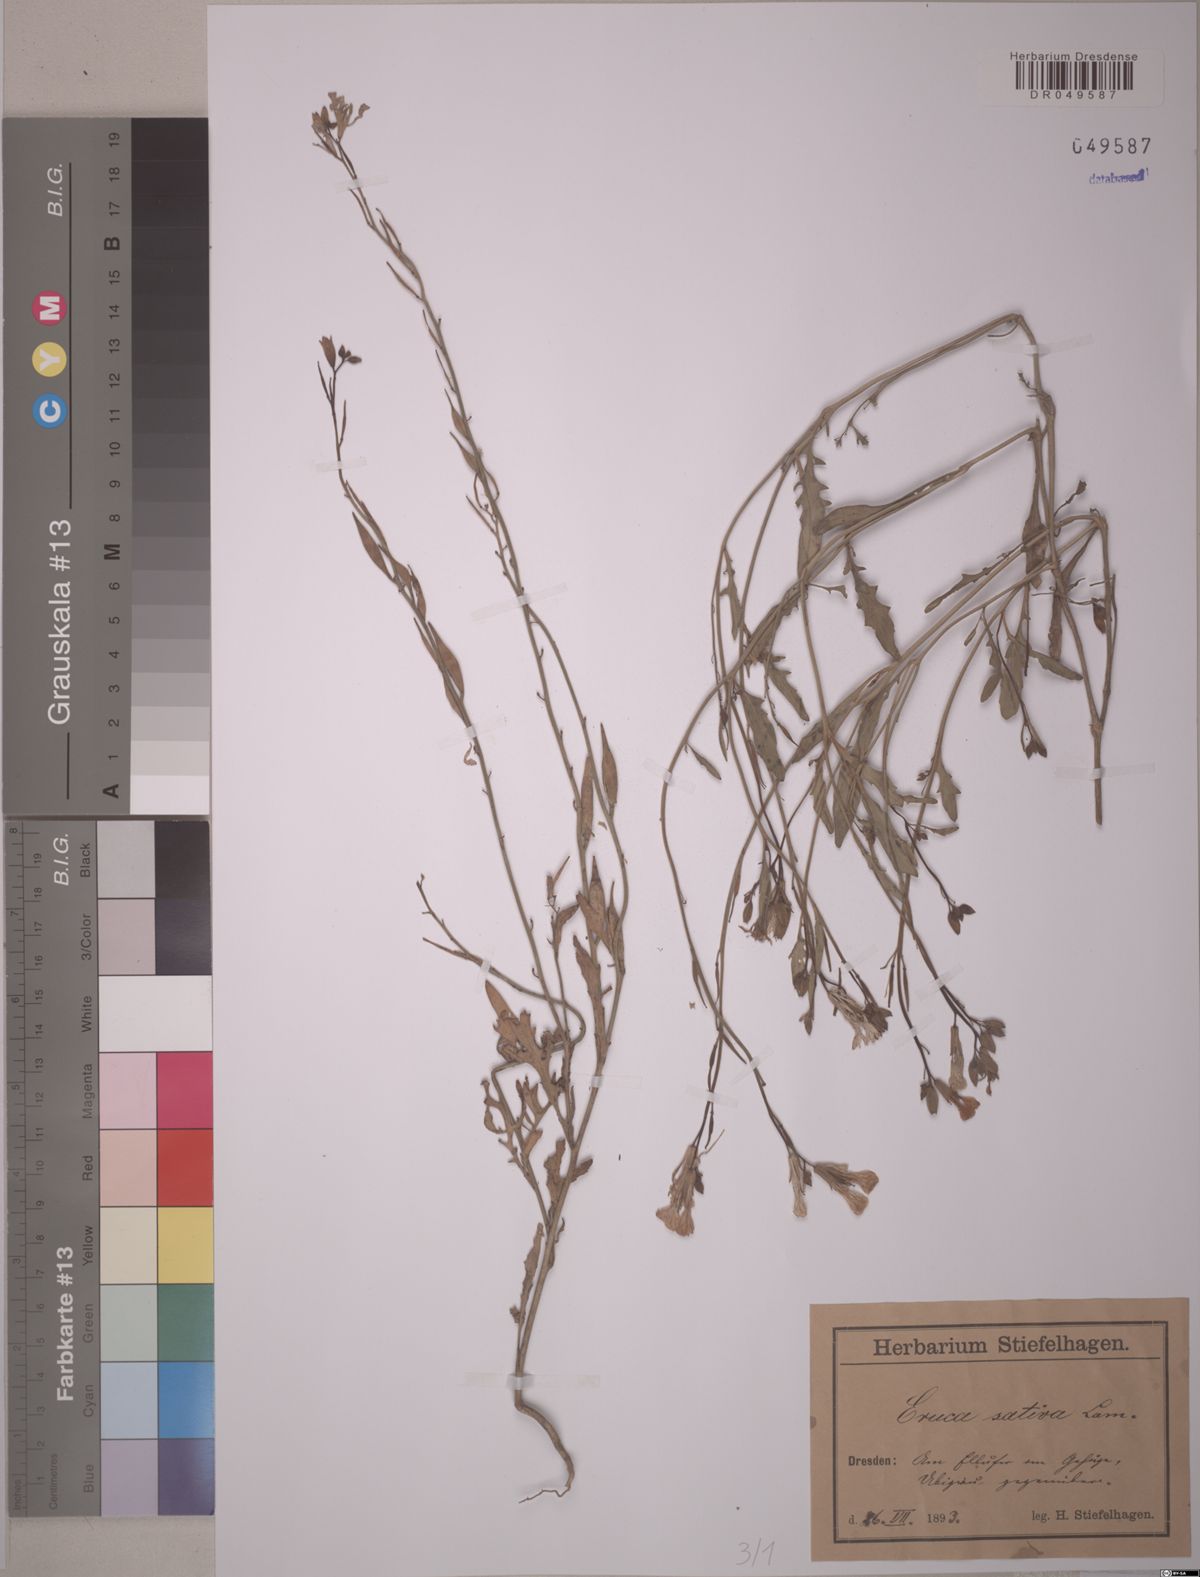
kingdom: Plantae
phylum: Tracheophyta
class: Magnoliopsida
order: Brassicales
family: Brassicaceae
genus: Eruca
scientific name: Eruca vesicaria
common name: Garden rocket
